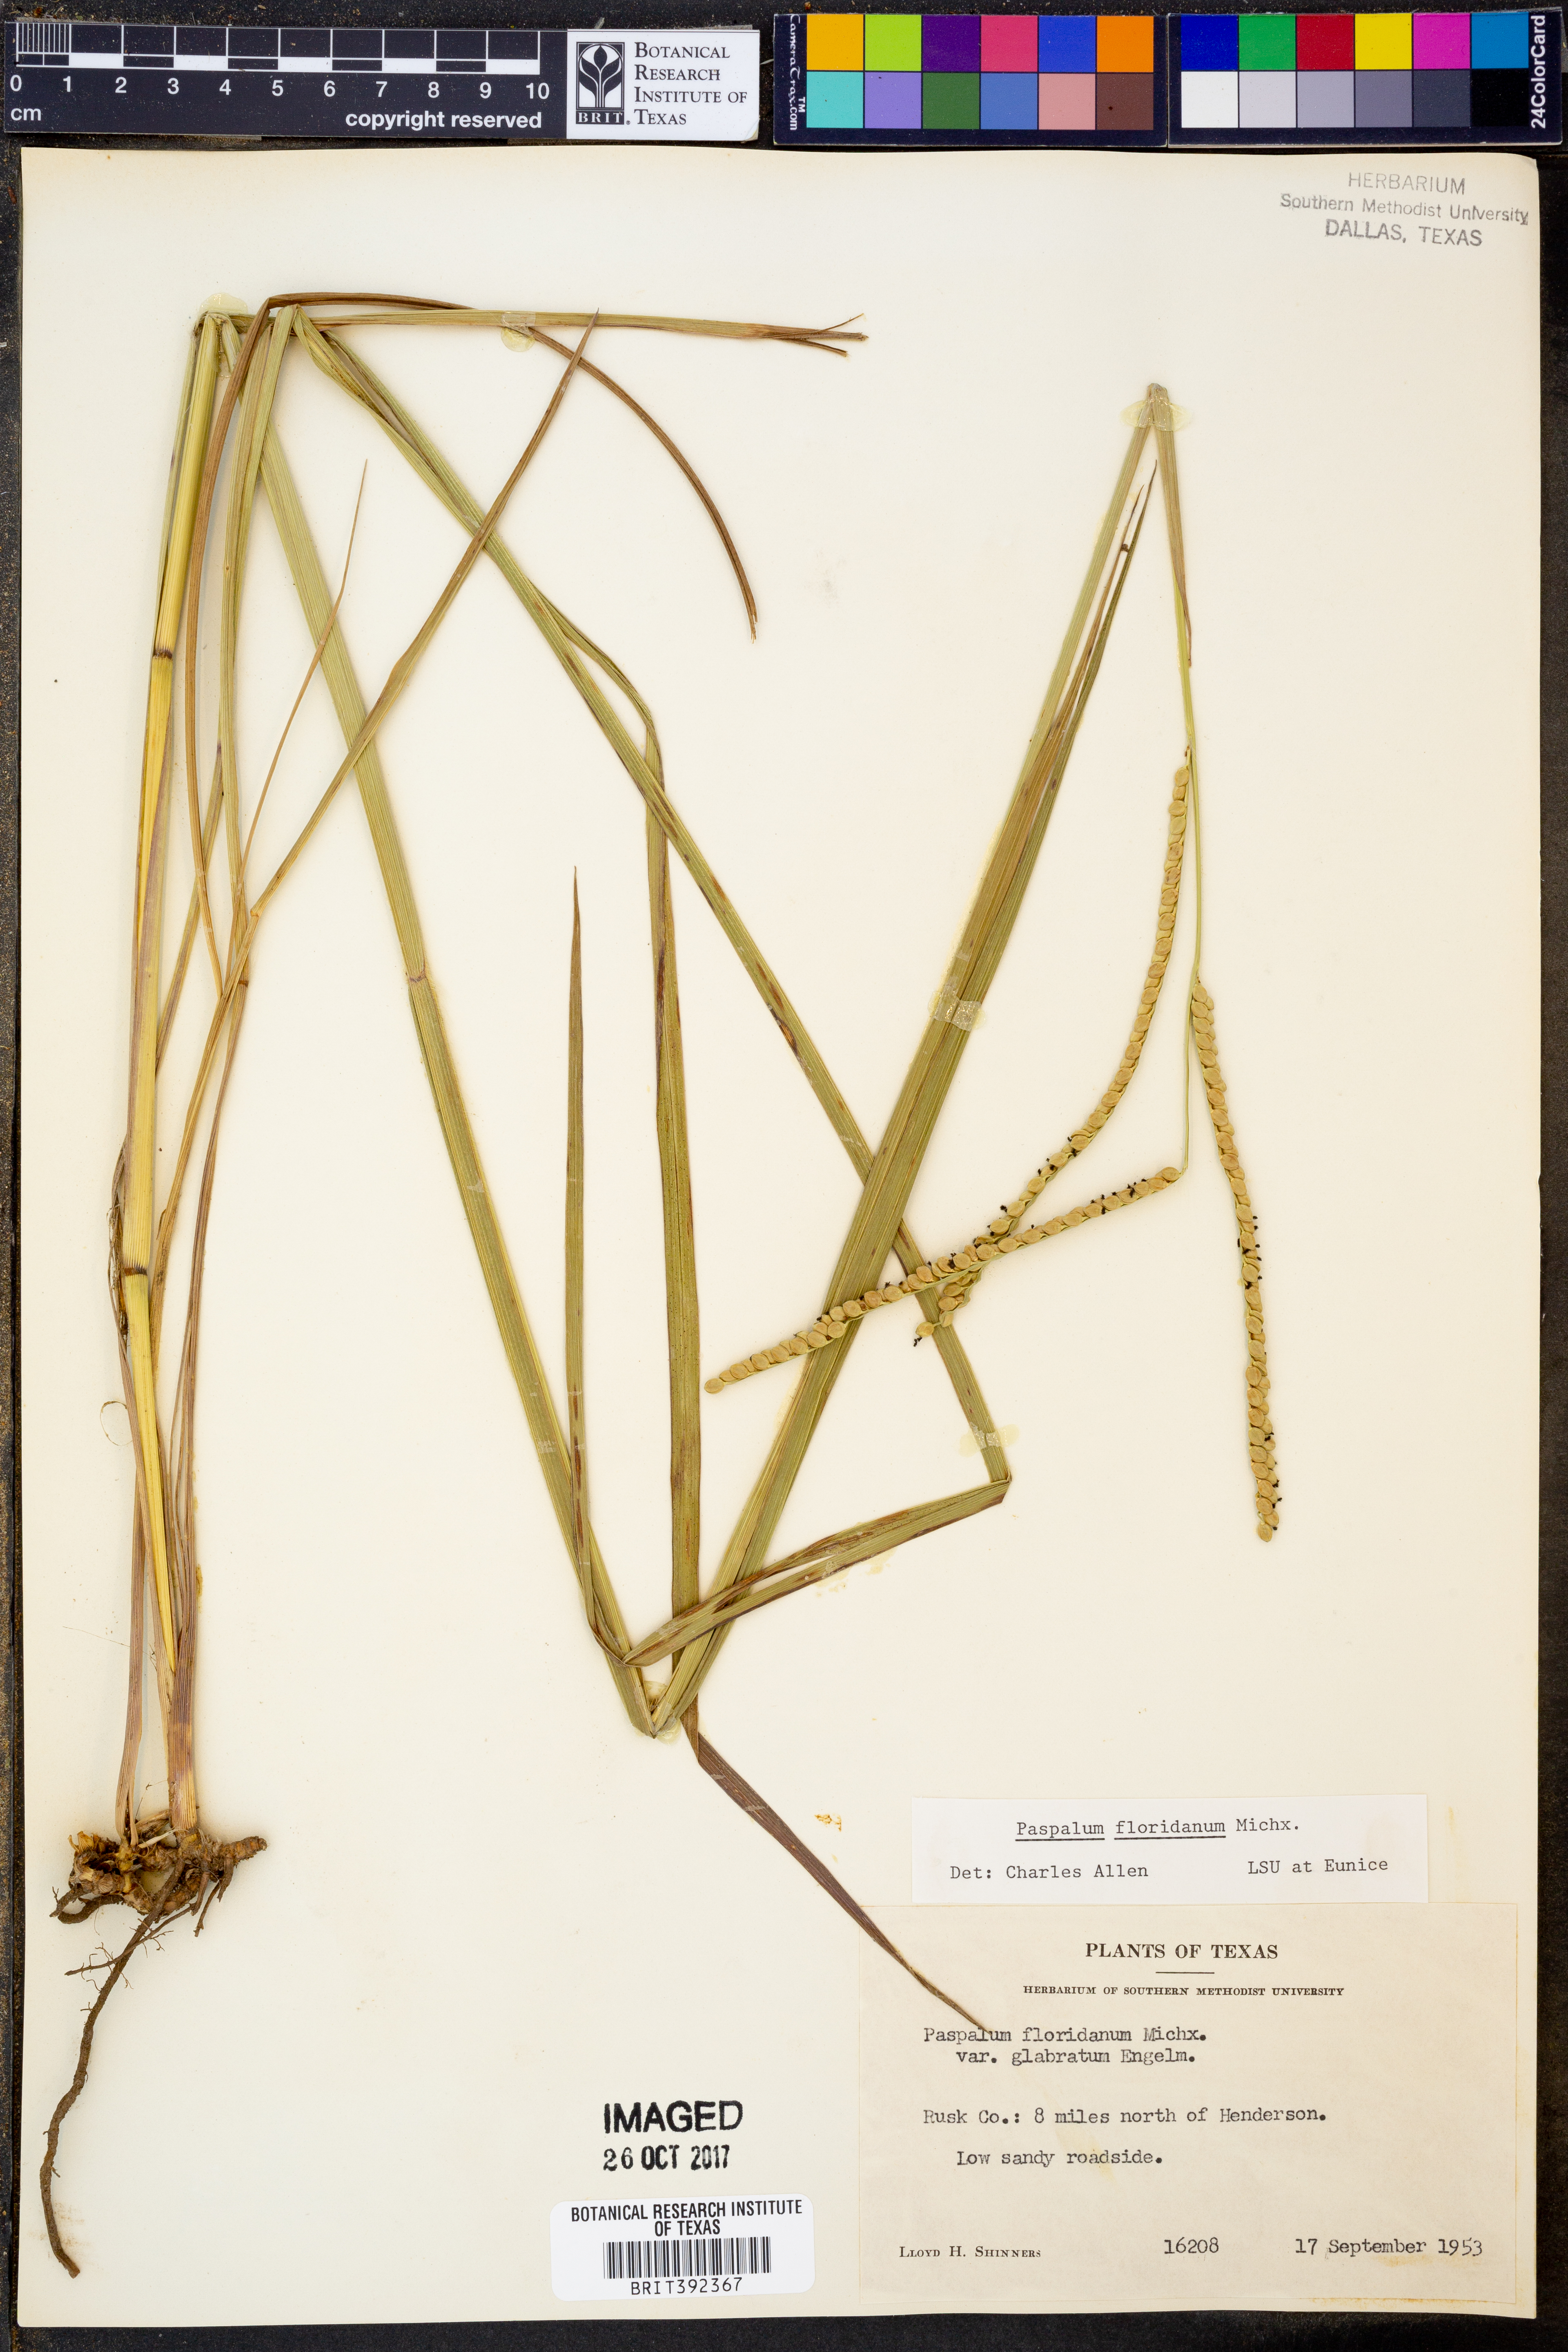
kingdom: Plantae
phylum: Tracheophyta
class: Liliopsida
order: Poales
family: Poaceae
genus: Paspalum
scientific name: Paspalum floridanum
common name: Florida paspalum
